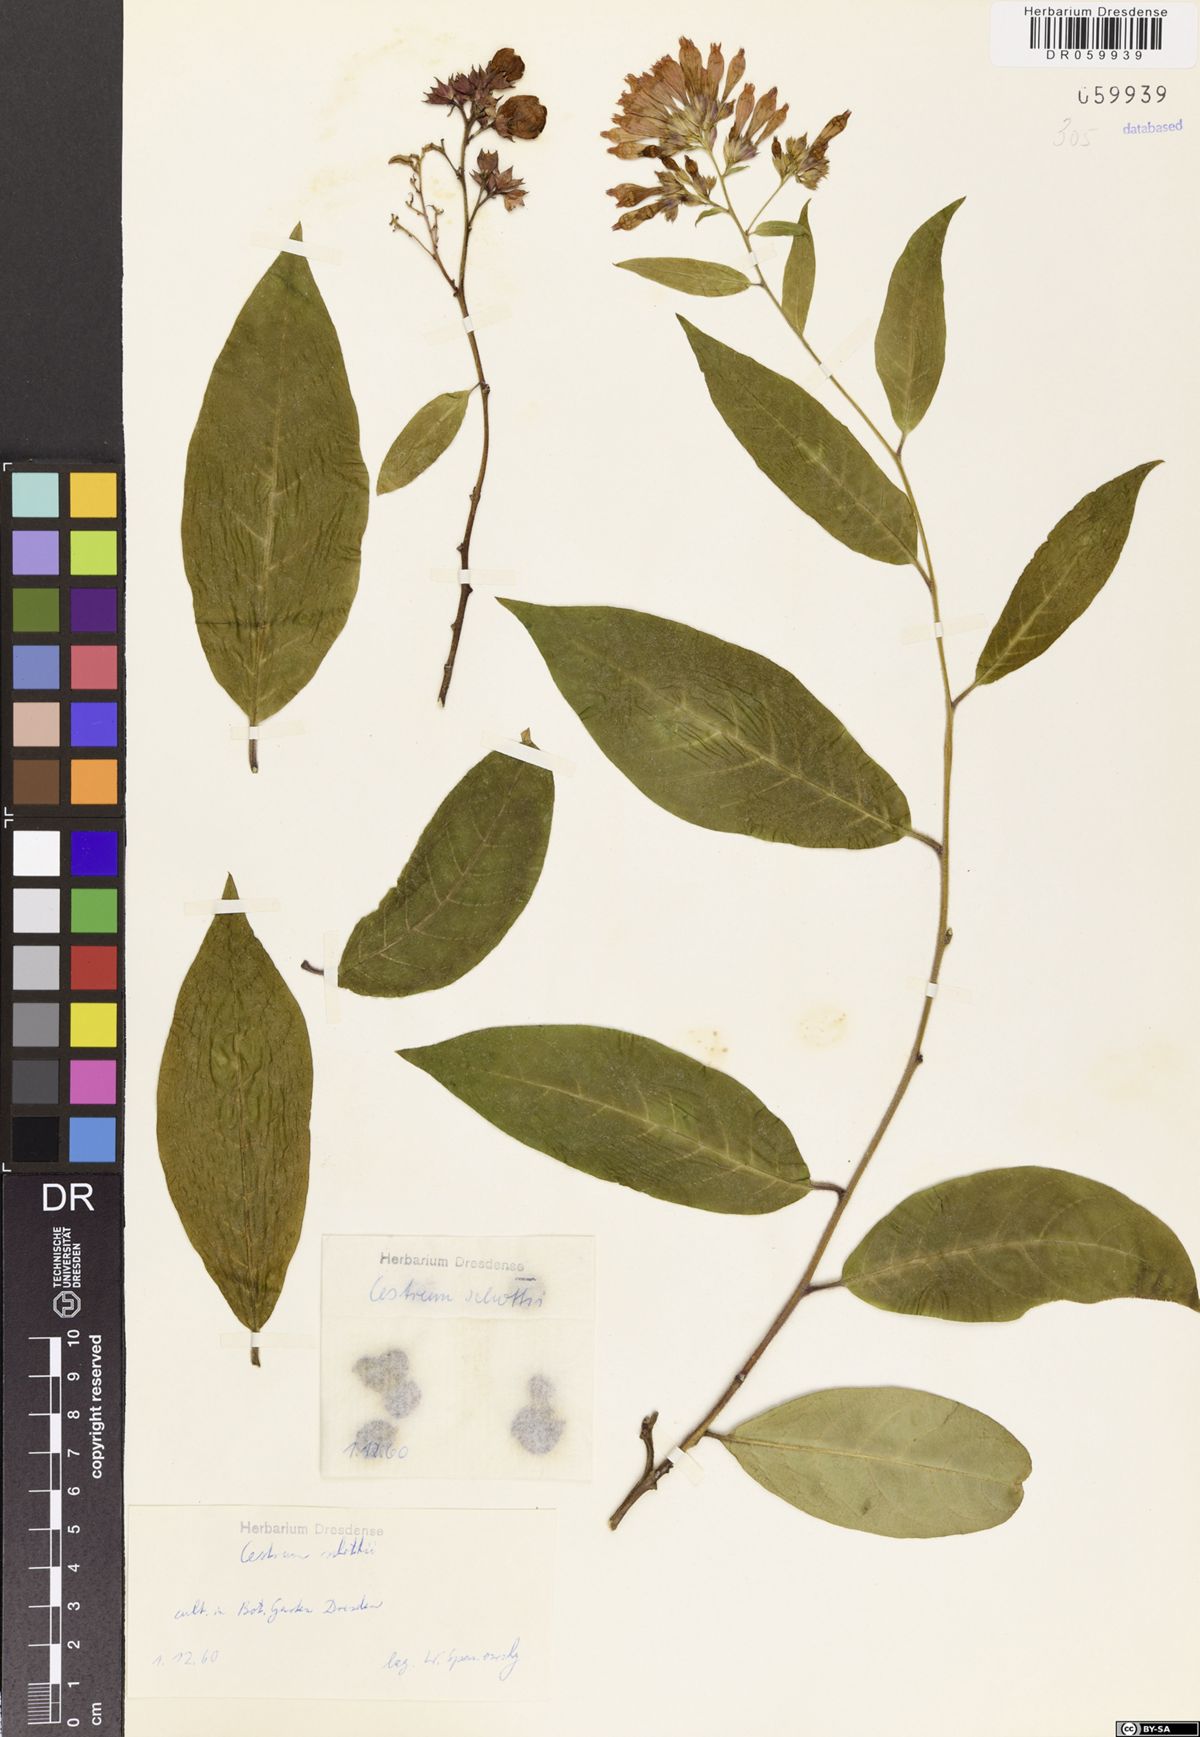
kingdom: Plantae
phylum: Tracheophyta
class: Magnoliopsida
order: Solanales
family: Solanaceae
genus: Cestrum
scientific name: Cestrum schlechtendalii
